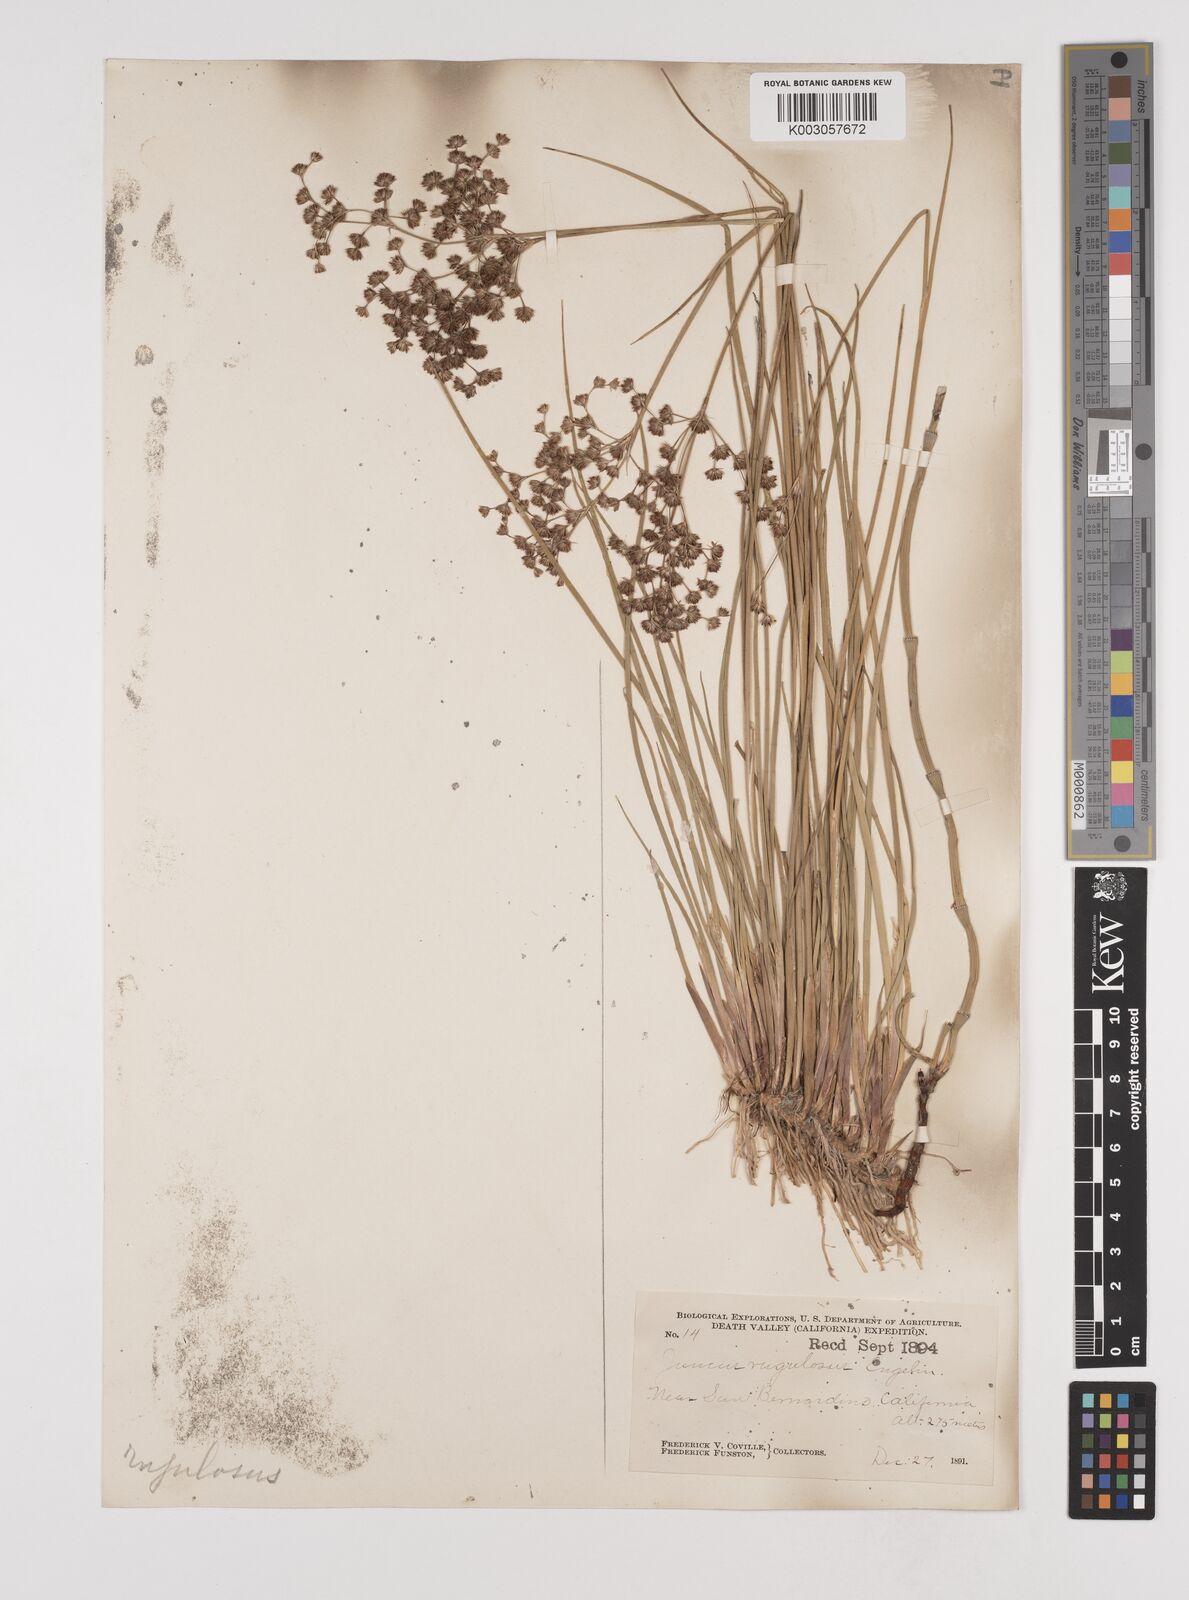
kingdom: Plantae
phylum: Tracheophyta
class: Liliopsida
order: Poales
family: Juncaceae
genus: Juncus
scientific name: Juncus rugulosus
